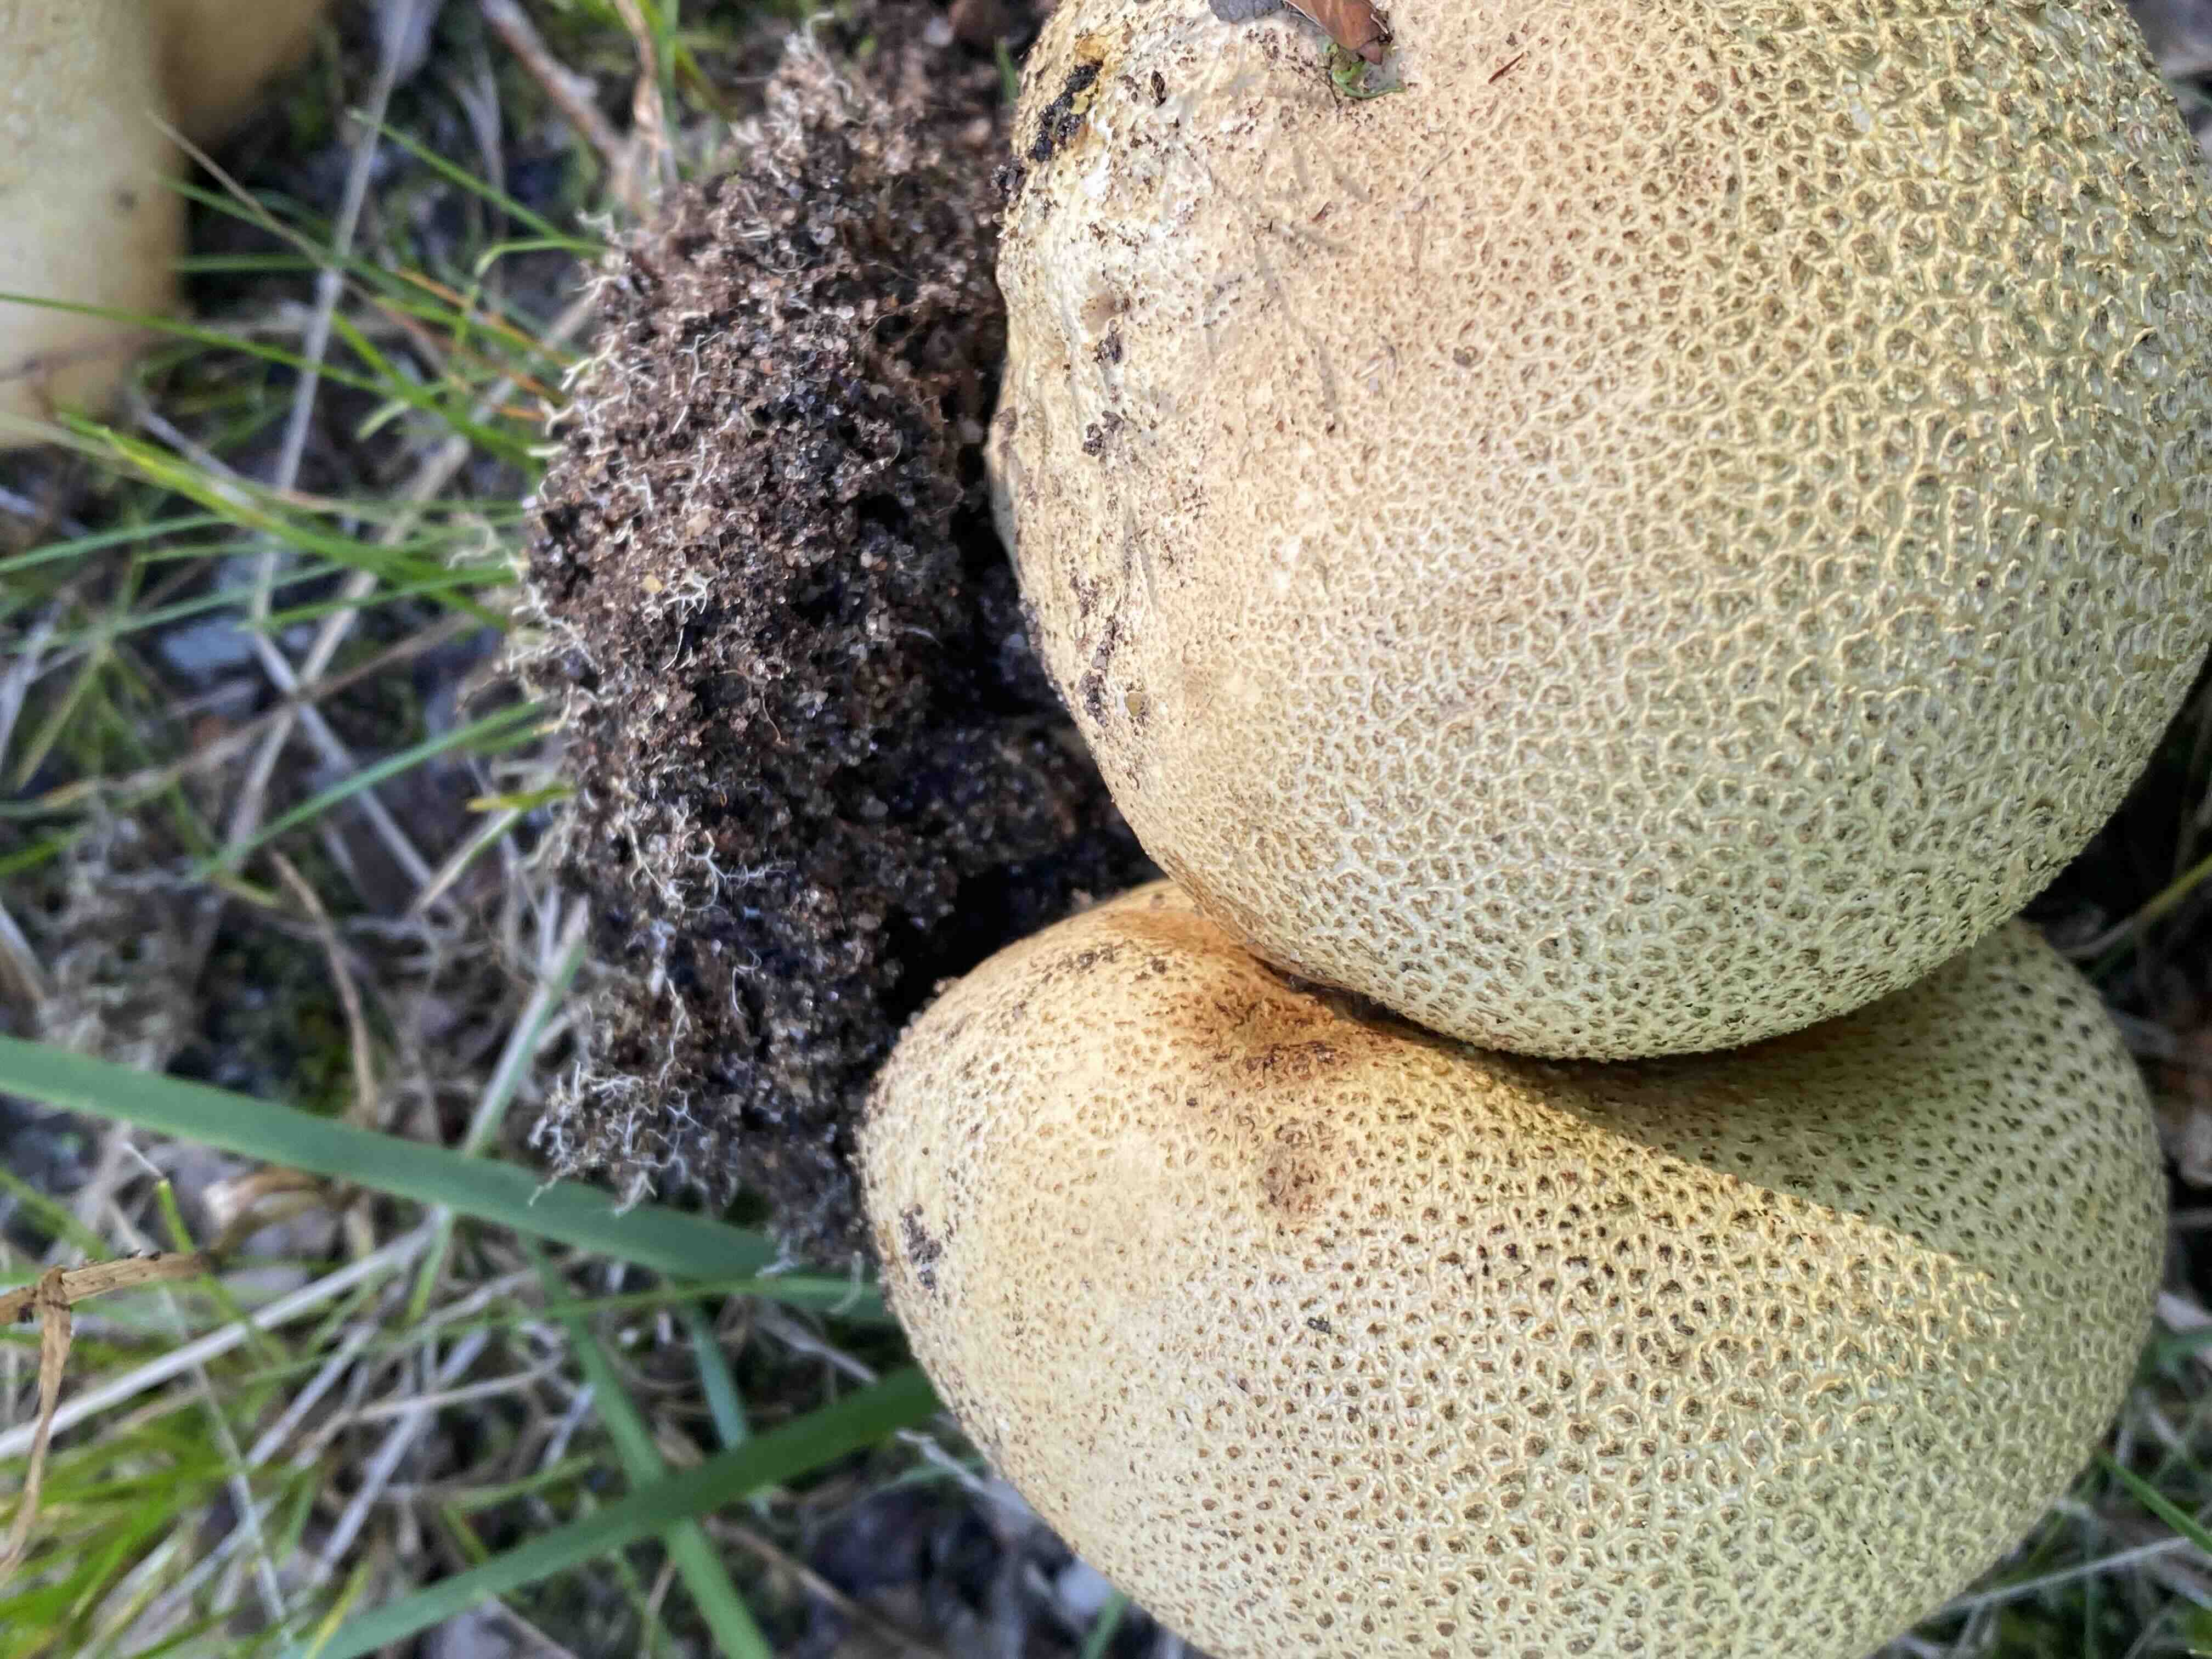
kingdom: Fungi
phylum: Basidiomycota
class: Agaricomycetes
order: Boletales
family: Sclerodermataceae
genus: Scleroderma
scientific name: Scleroderma citrinum
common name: almindelig bruskbold
